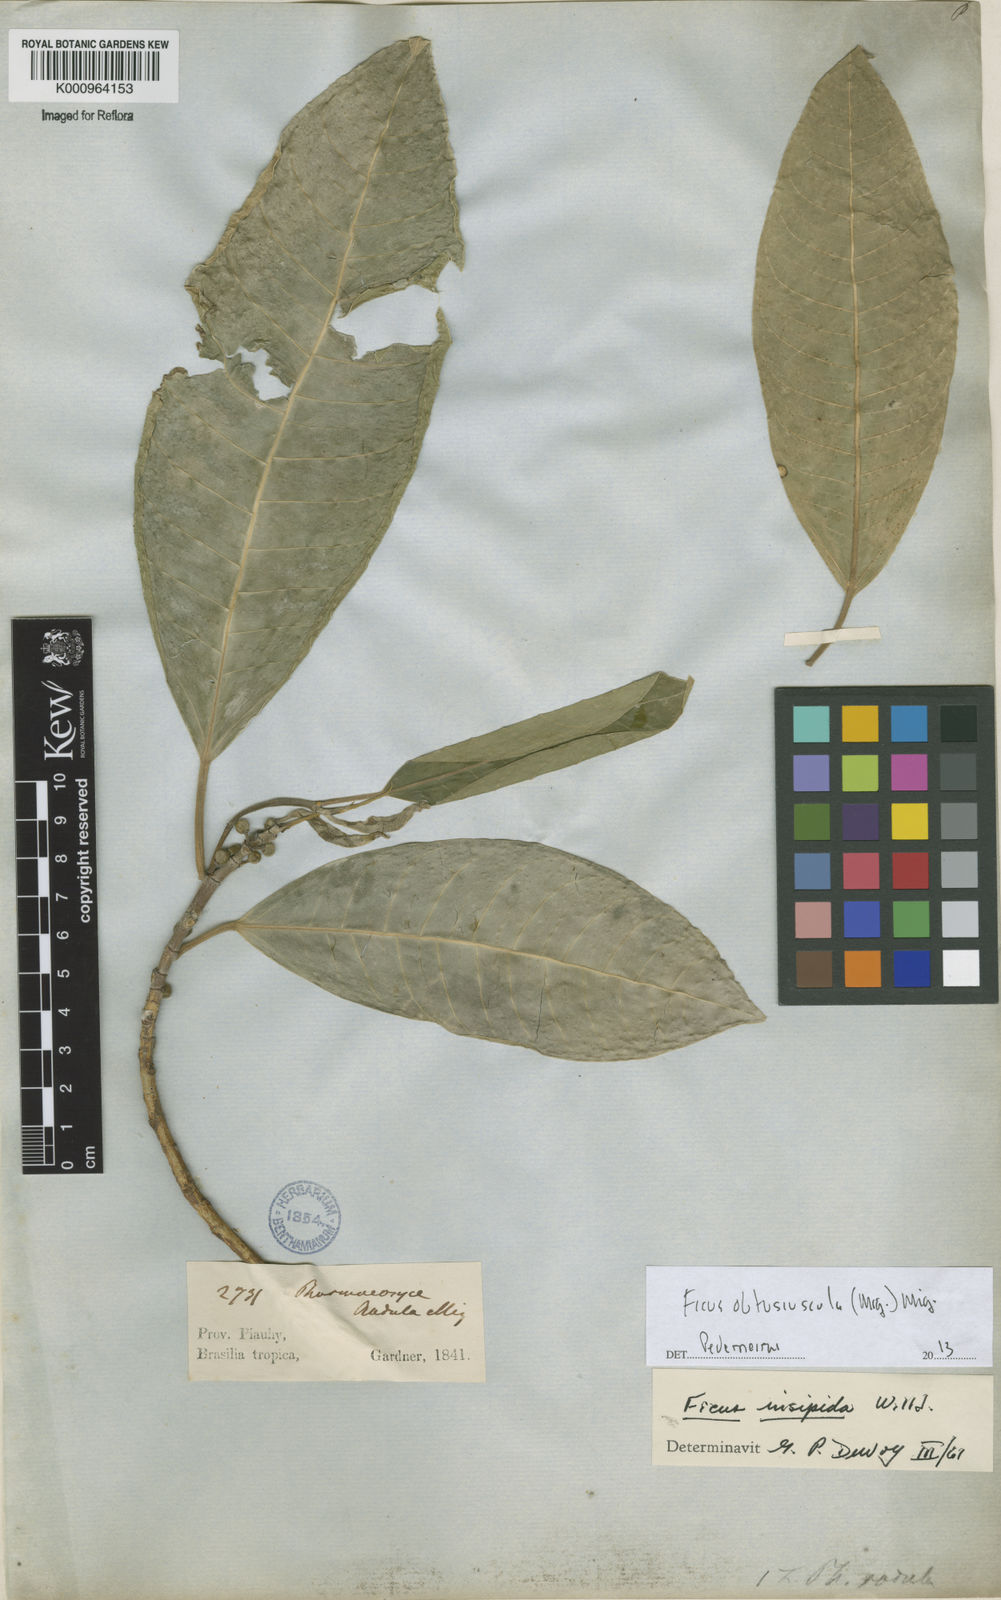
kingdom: Plantae
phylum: Tracheophyta
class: Magnoliopsida
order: Rosales
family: Moraceae
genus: Ficus
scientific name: Ficus obtusiuscula
